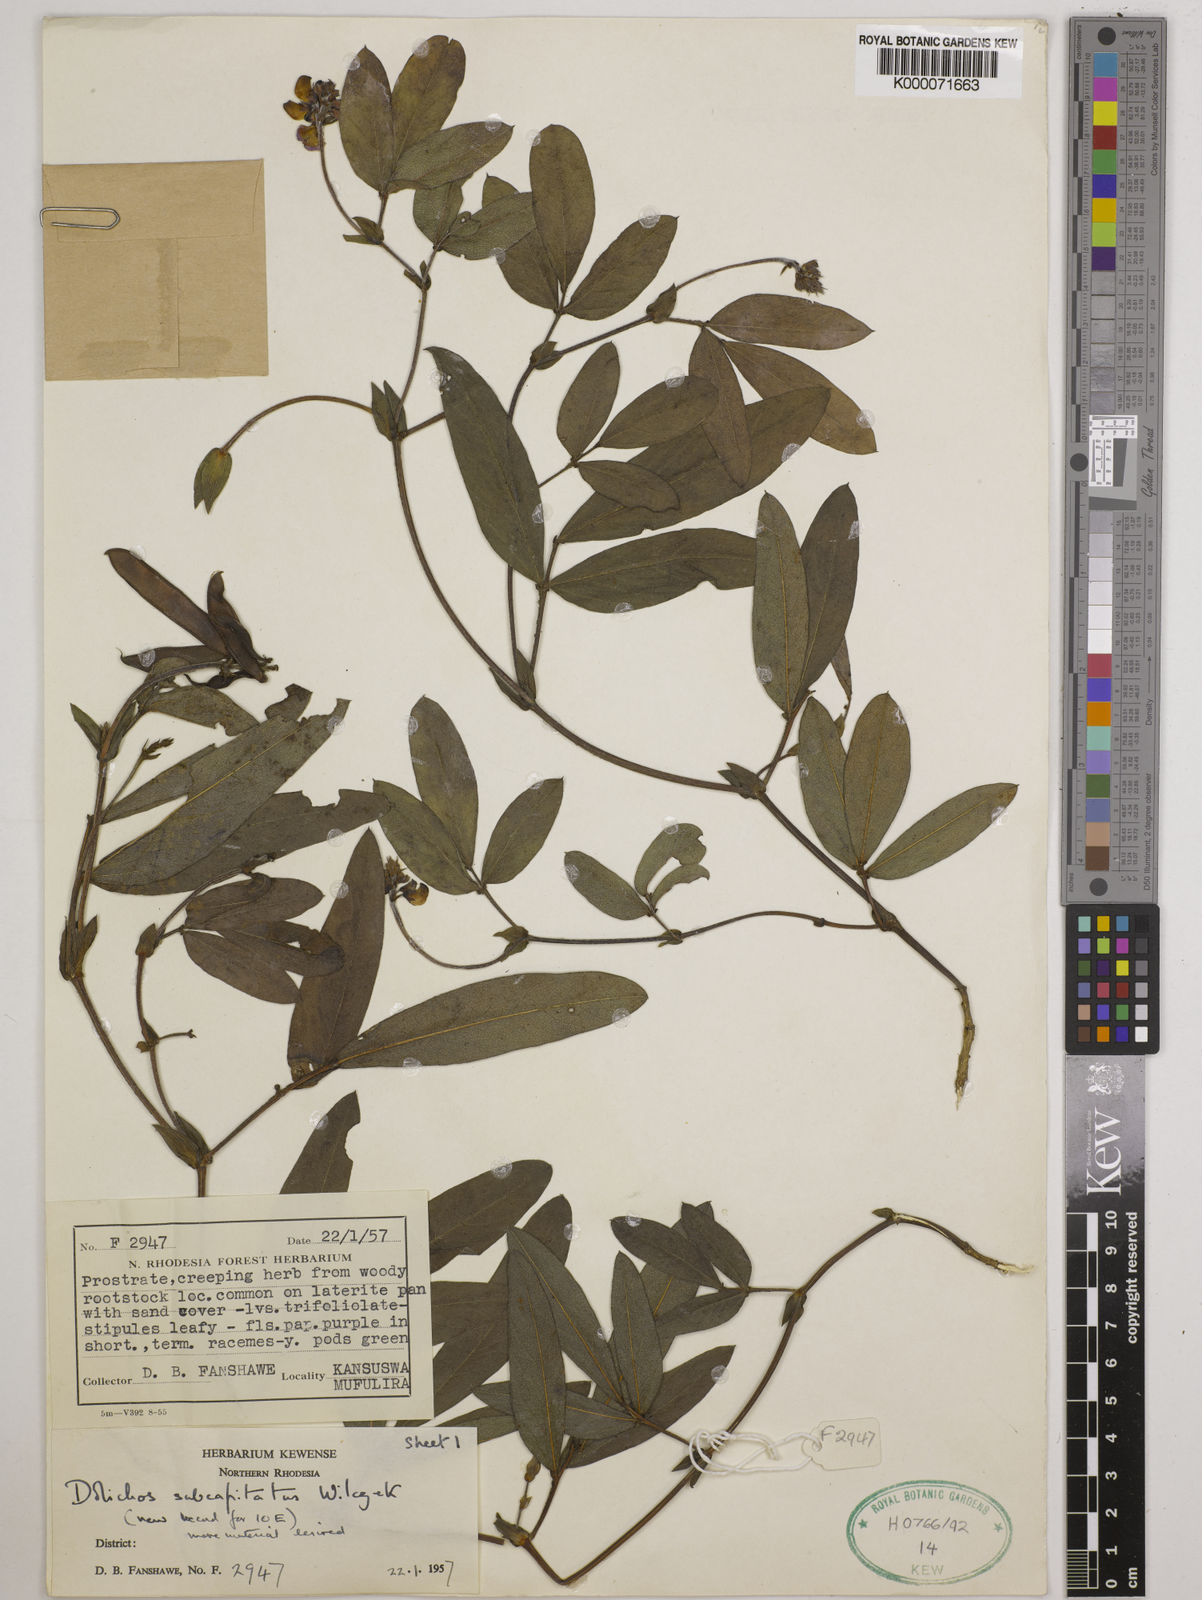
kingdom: Plantae
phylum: Tracheophyta
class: Magnoliopsida
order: Fabales
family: Fabaceae
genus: Dolichos
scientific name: Dolichos subcapitatus
